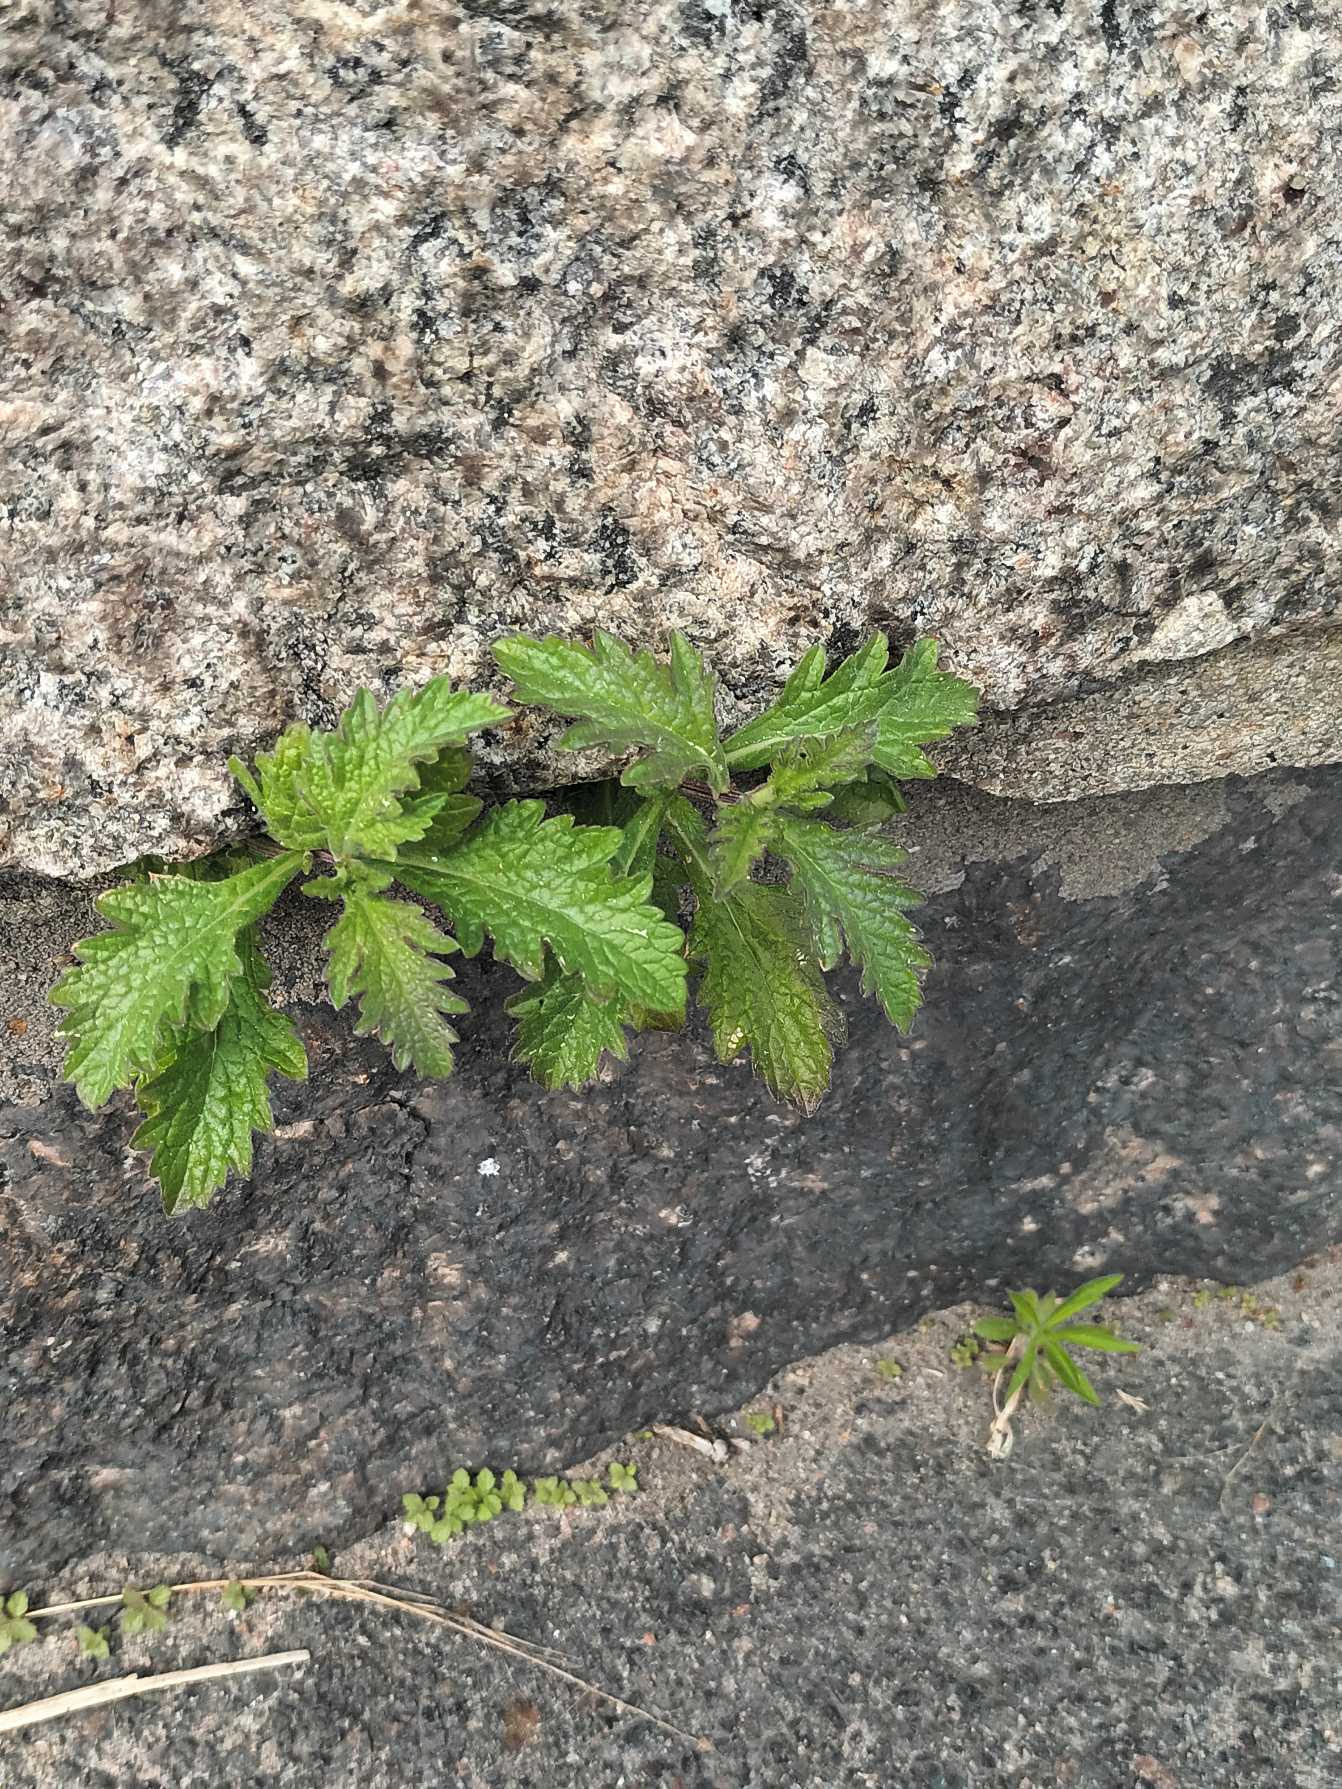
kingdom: Plantae
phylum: Tracheophyta
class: Magnoliopsida
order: Lamiales
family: Verbenaceae
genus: Verbena
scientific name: Verbena officinalis
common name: Læge-jernurt
